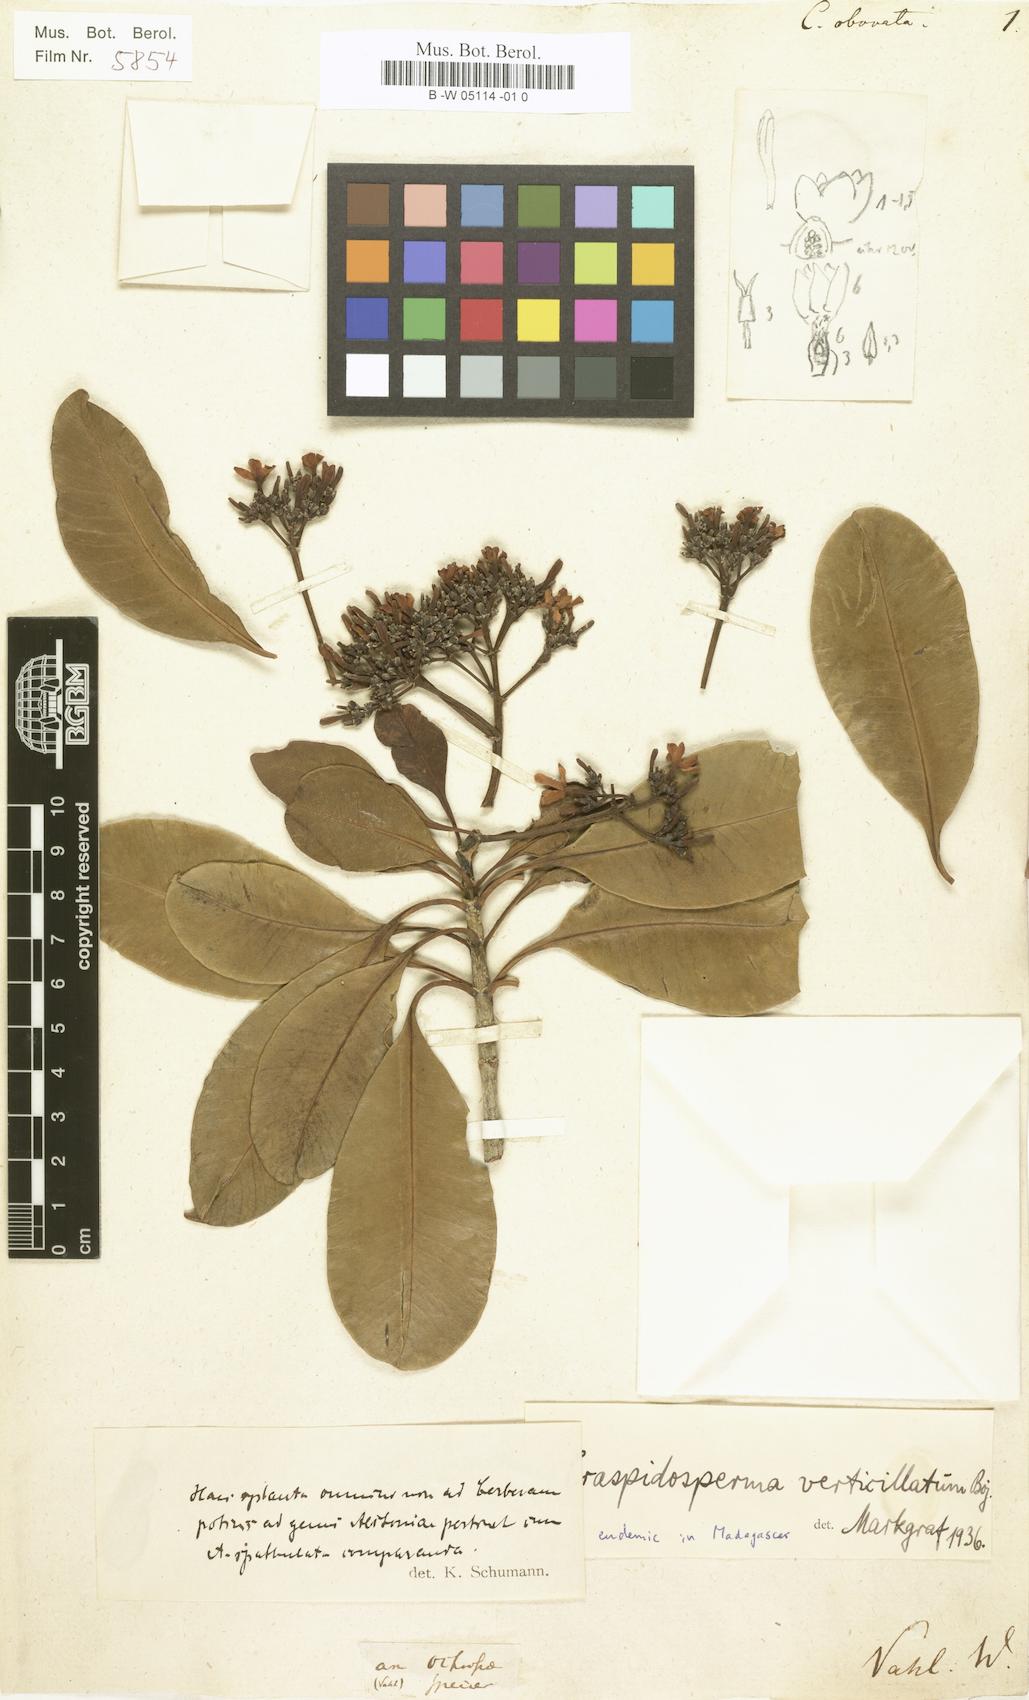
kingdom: Plantae
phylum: Tracheophyta
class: Magnoliopsida
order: Gentianales
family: Apocynaceae
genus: Craspidospermum
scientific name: Craspidospermum verticillatum
